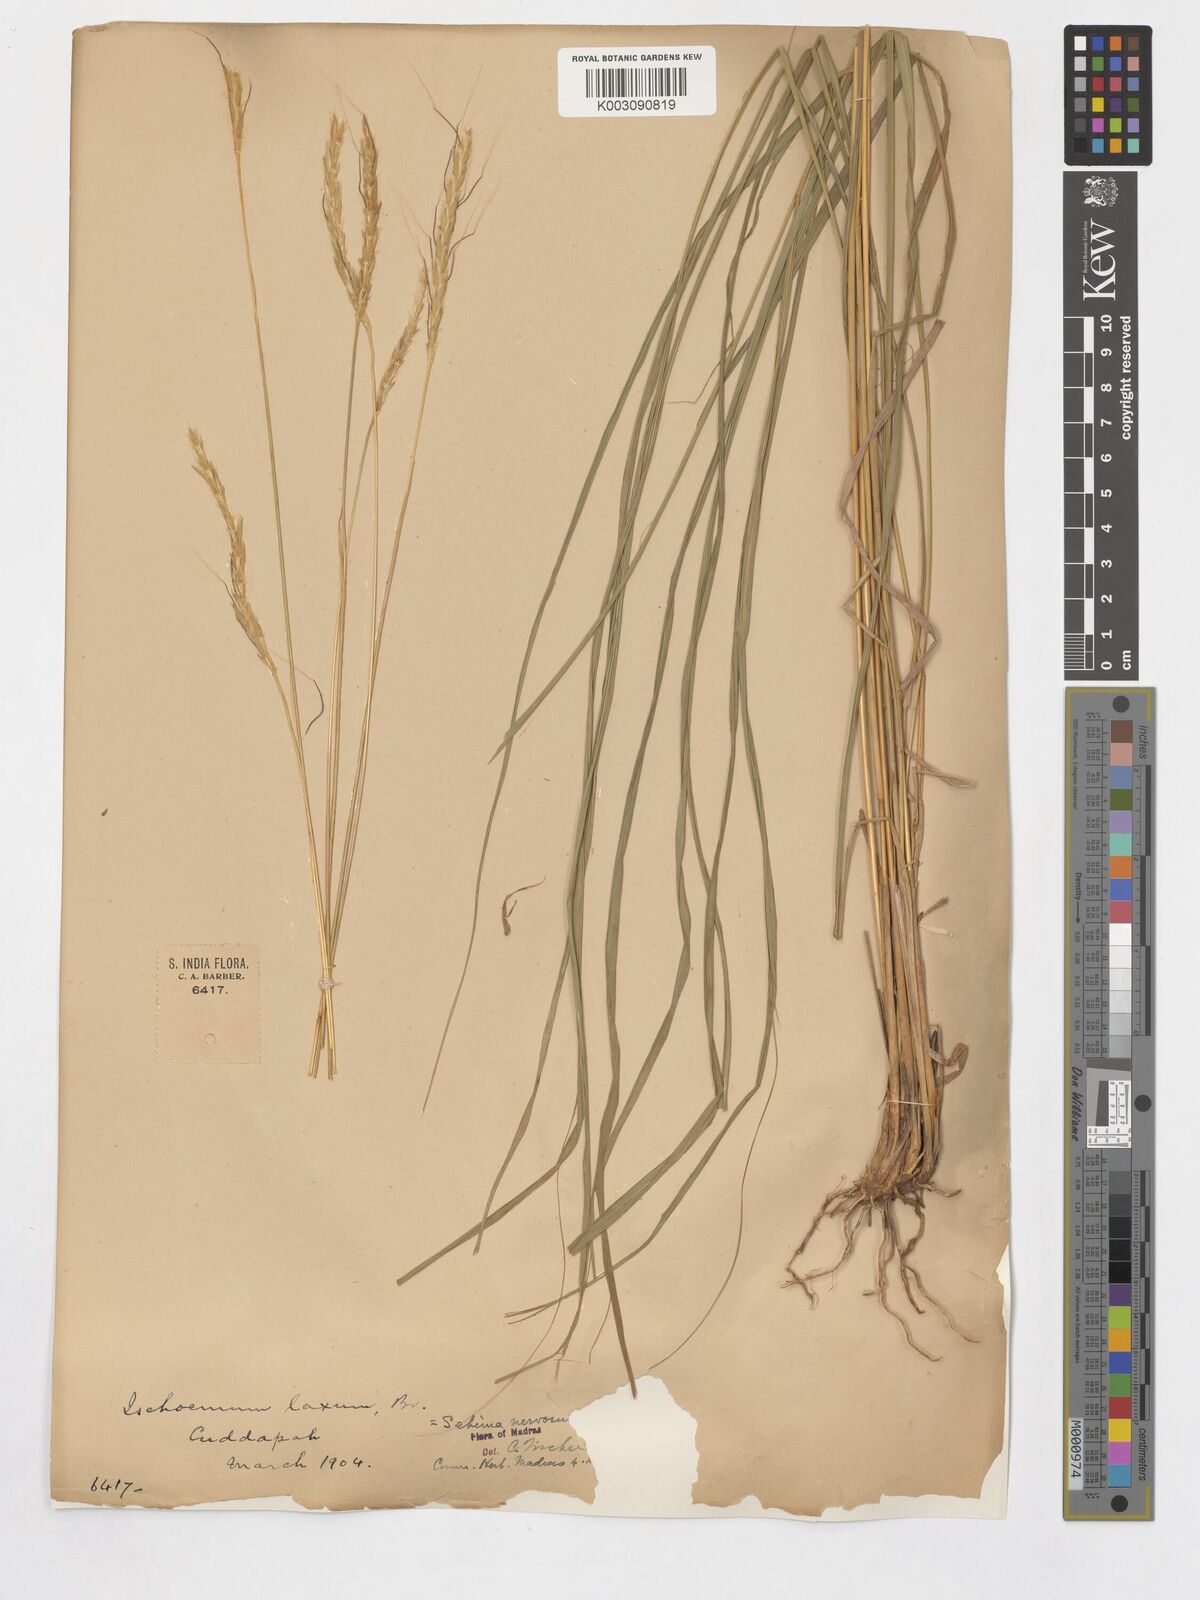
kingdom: Plantae
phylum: Tracheophyta
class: Liliopsida
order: Poales
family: Poaceae
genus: Sehima
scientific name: Sehima nervosa
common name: Rat-tail grass
